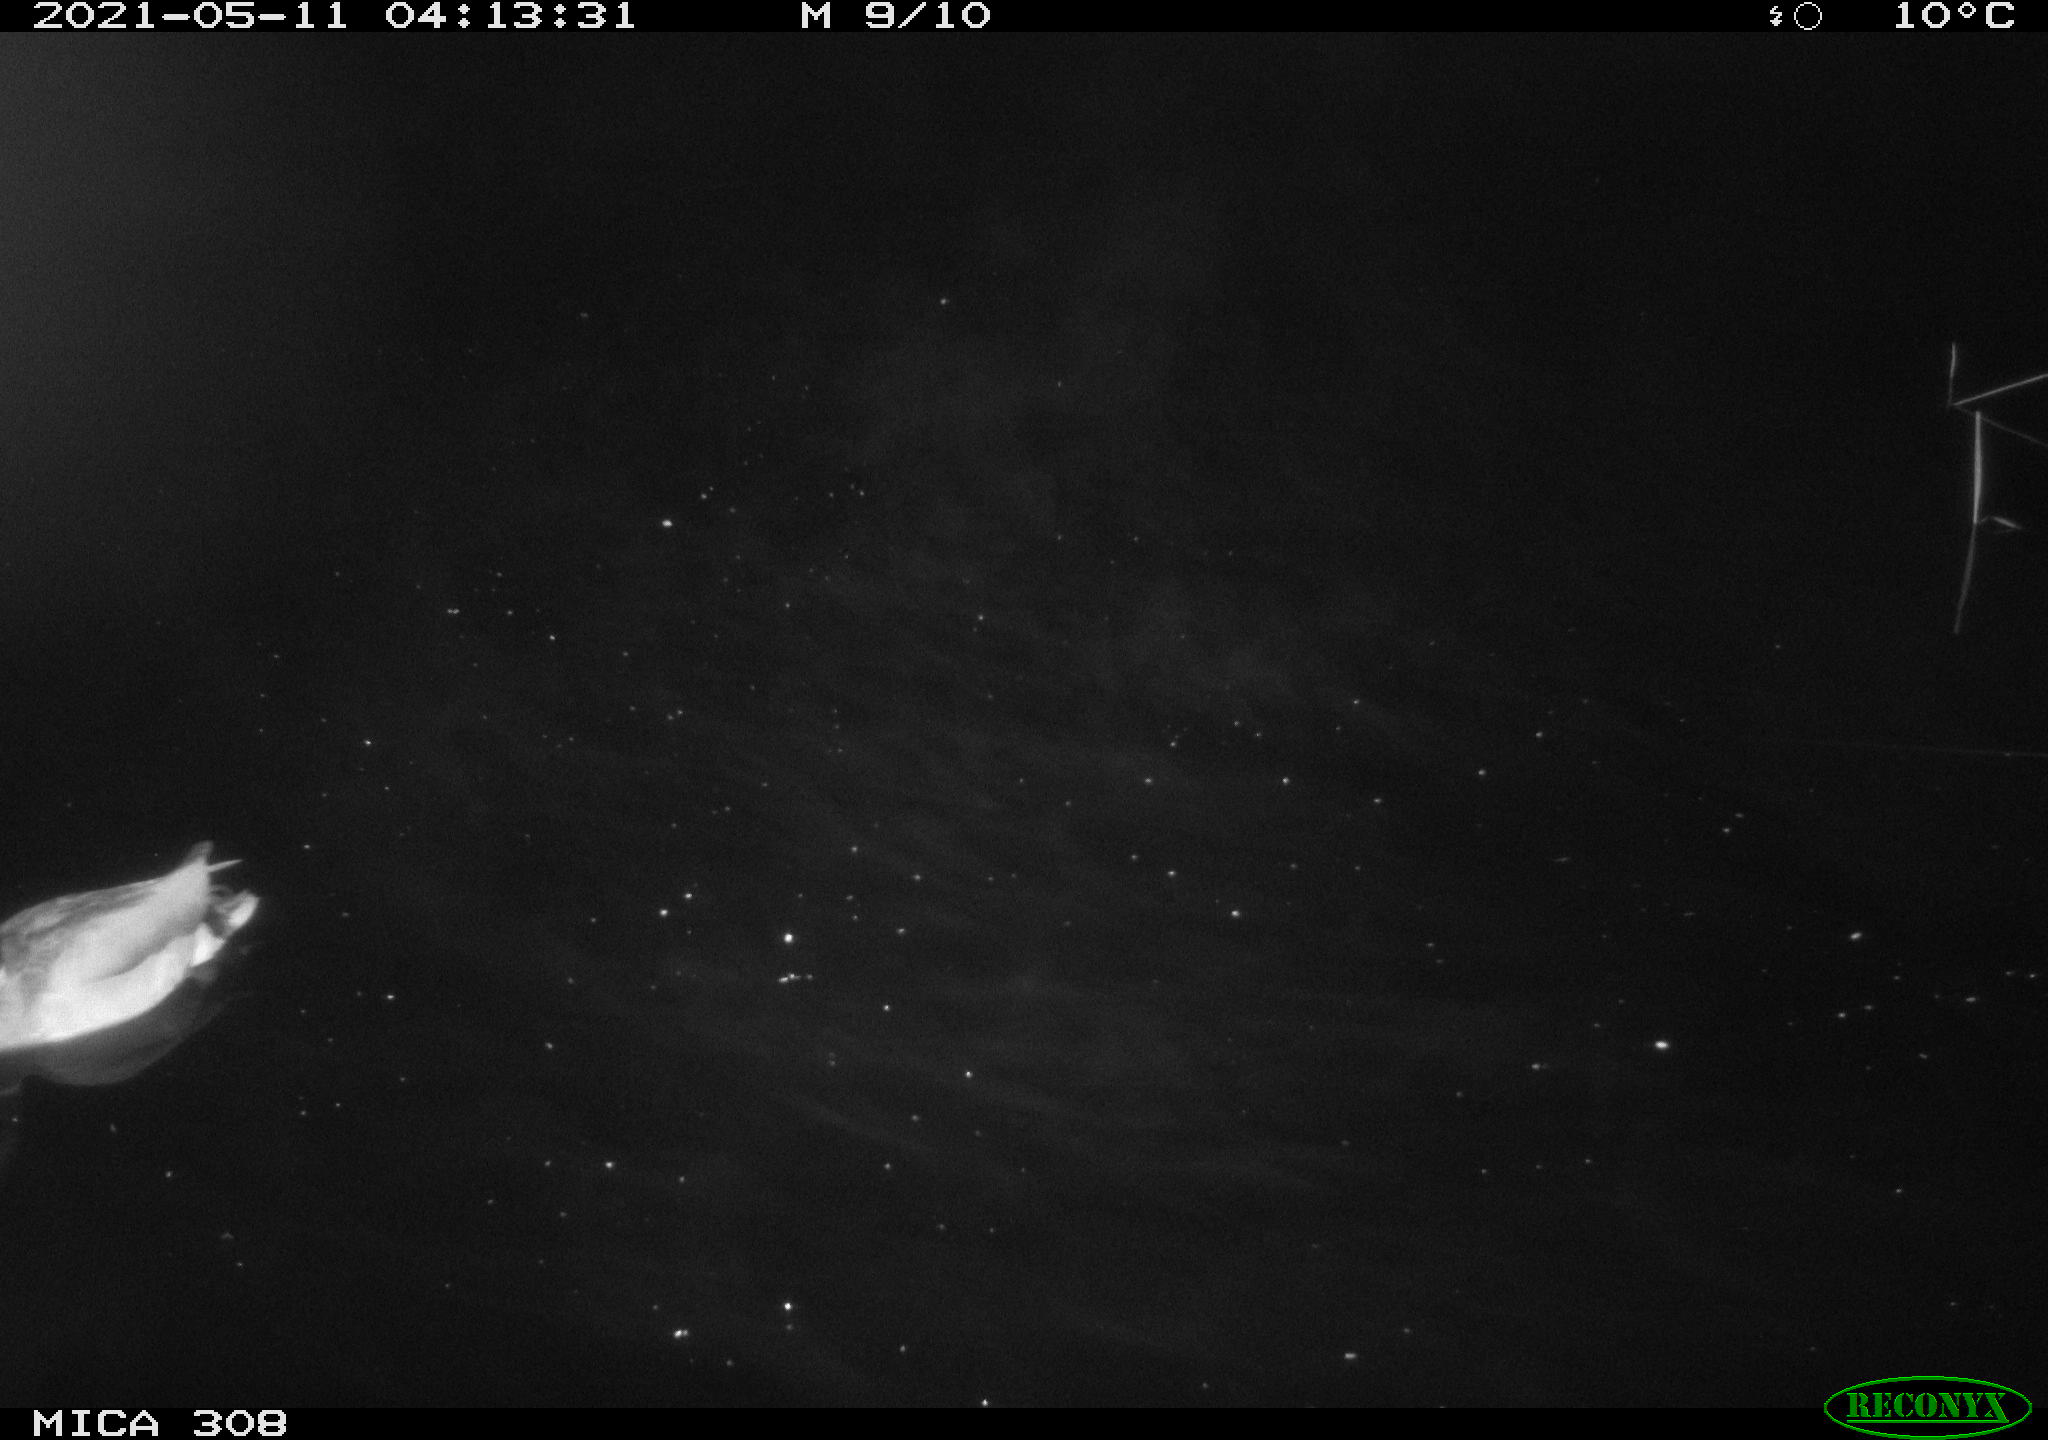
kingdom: Animalia
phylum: Chordata
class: Aves
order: Gruiformes
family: Rallidae
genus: Gallinula
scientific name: Gallinula chloropus
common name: Common moorhen
